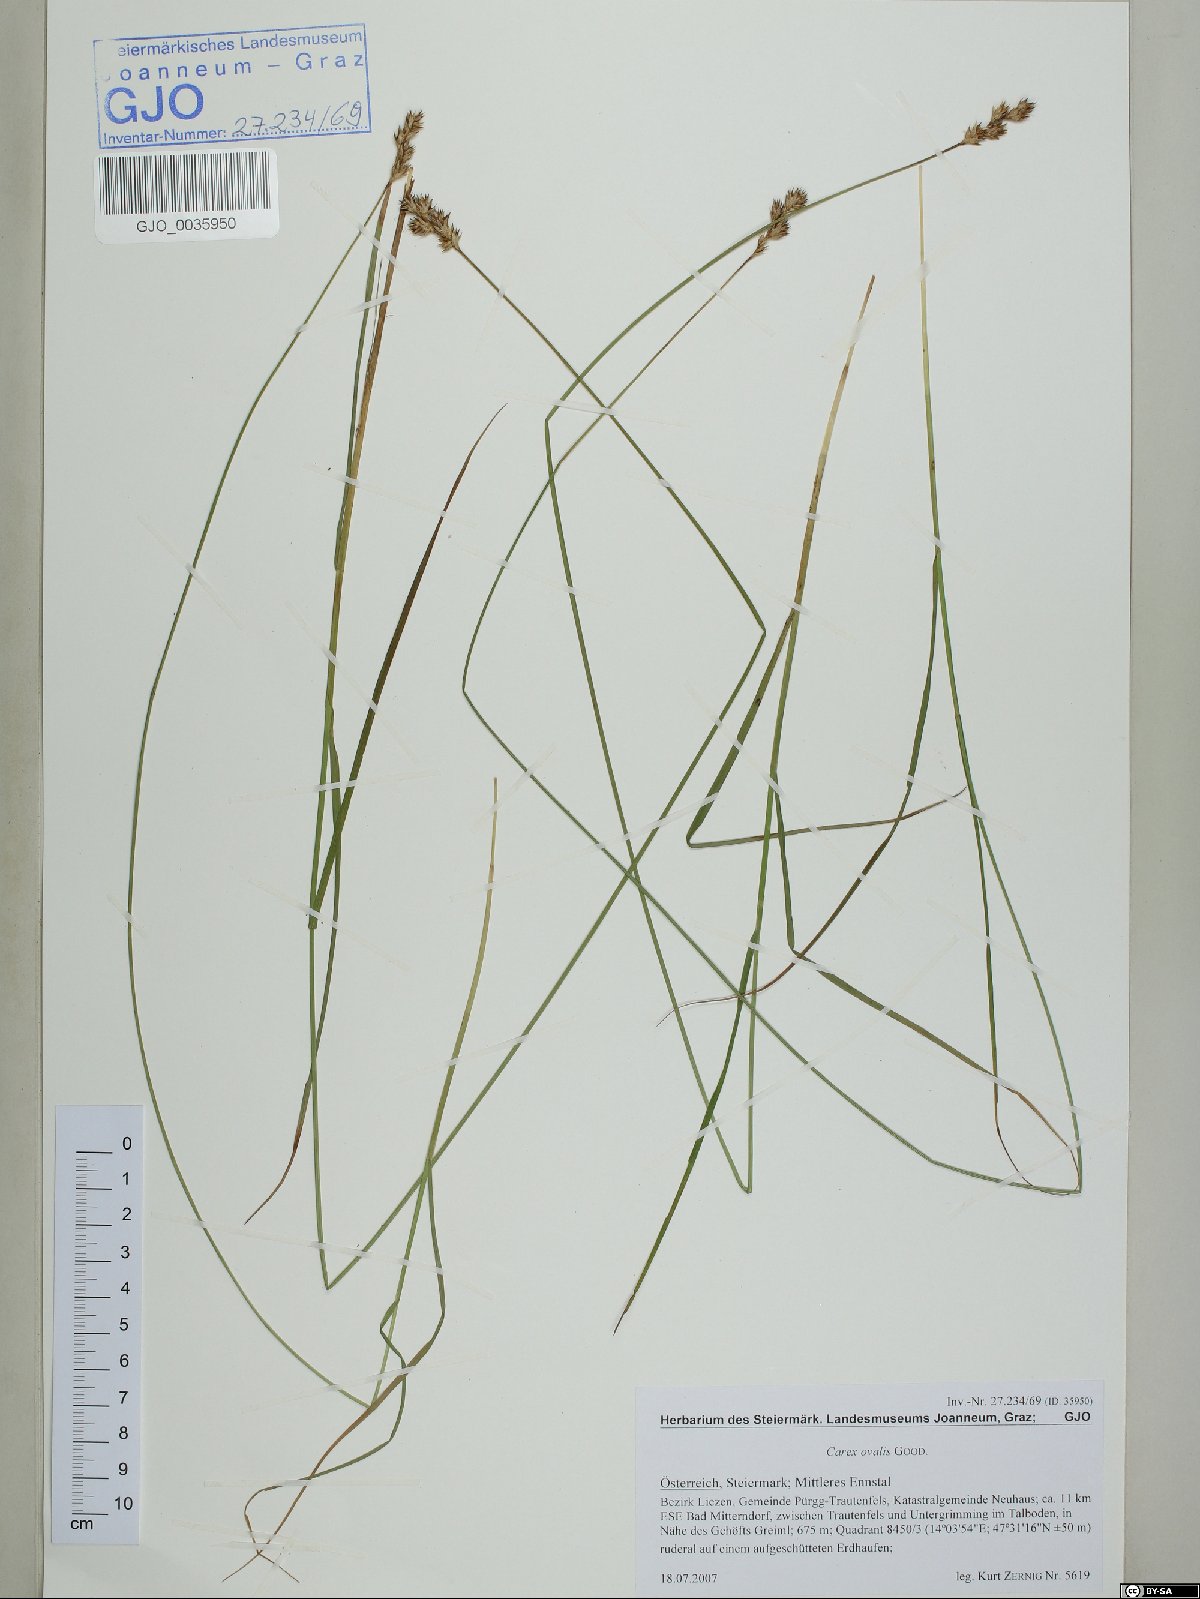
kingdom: Plantae
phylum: Tracheophyta
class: Liliopsida
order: Poales
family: Cyperaceae
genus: Carex
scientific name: Carex leporina
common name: Oval sedge
